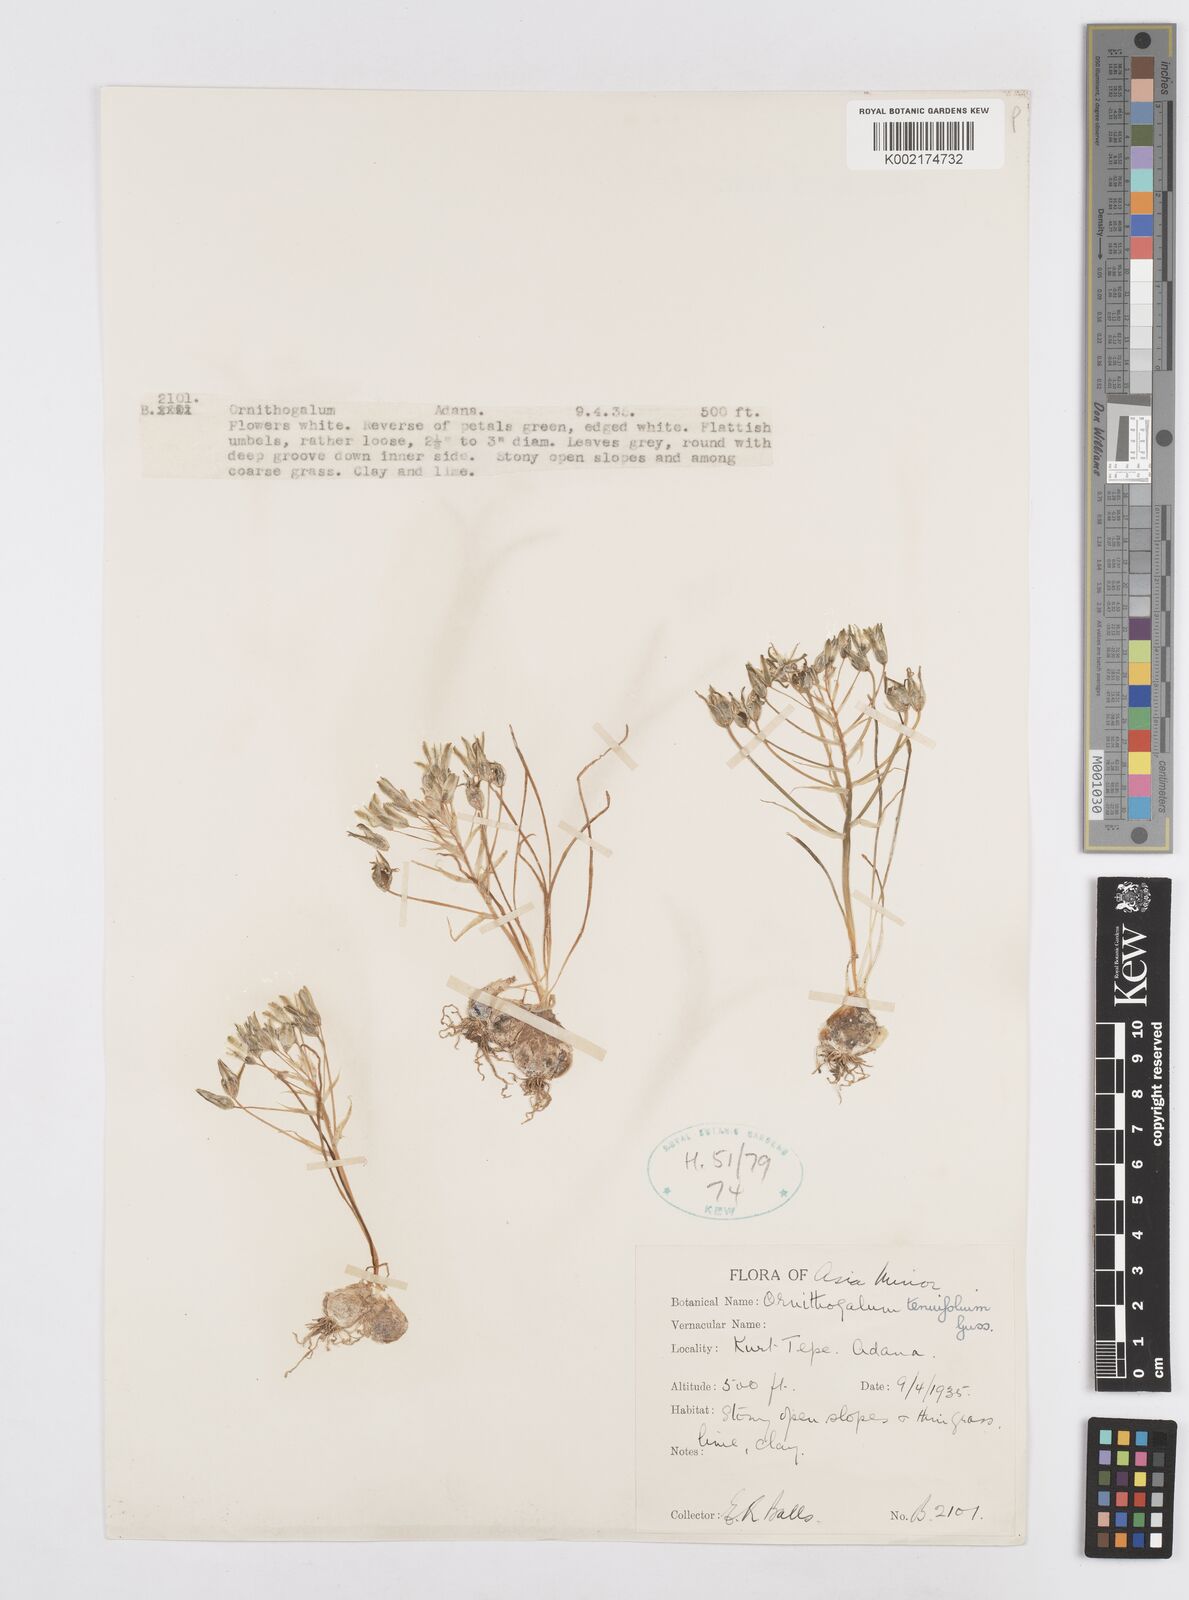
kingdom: Plantae
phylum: Tracheophyta
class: Liliopsida
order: Asparagales
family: Asparagaceae
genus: Ornithogalum
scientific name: Ornithogalum gussonei
